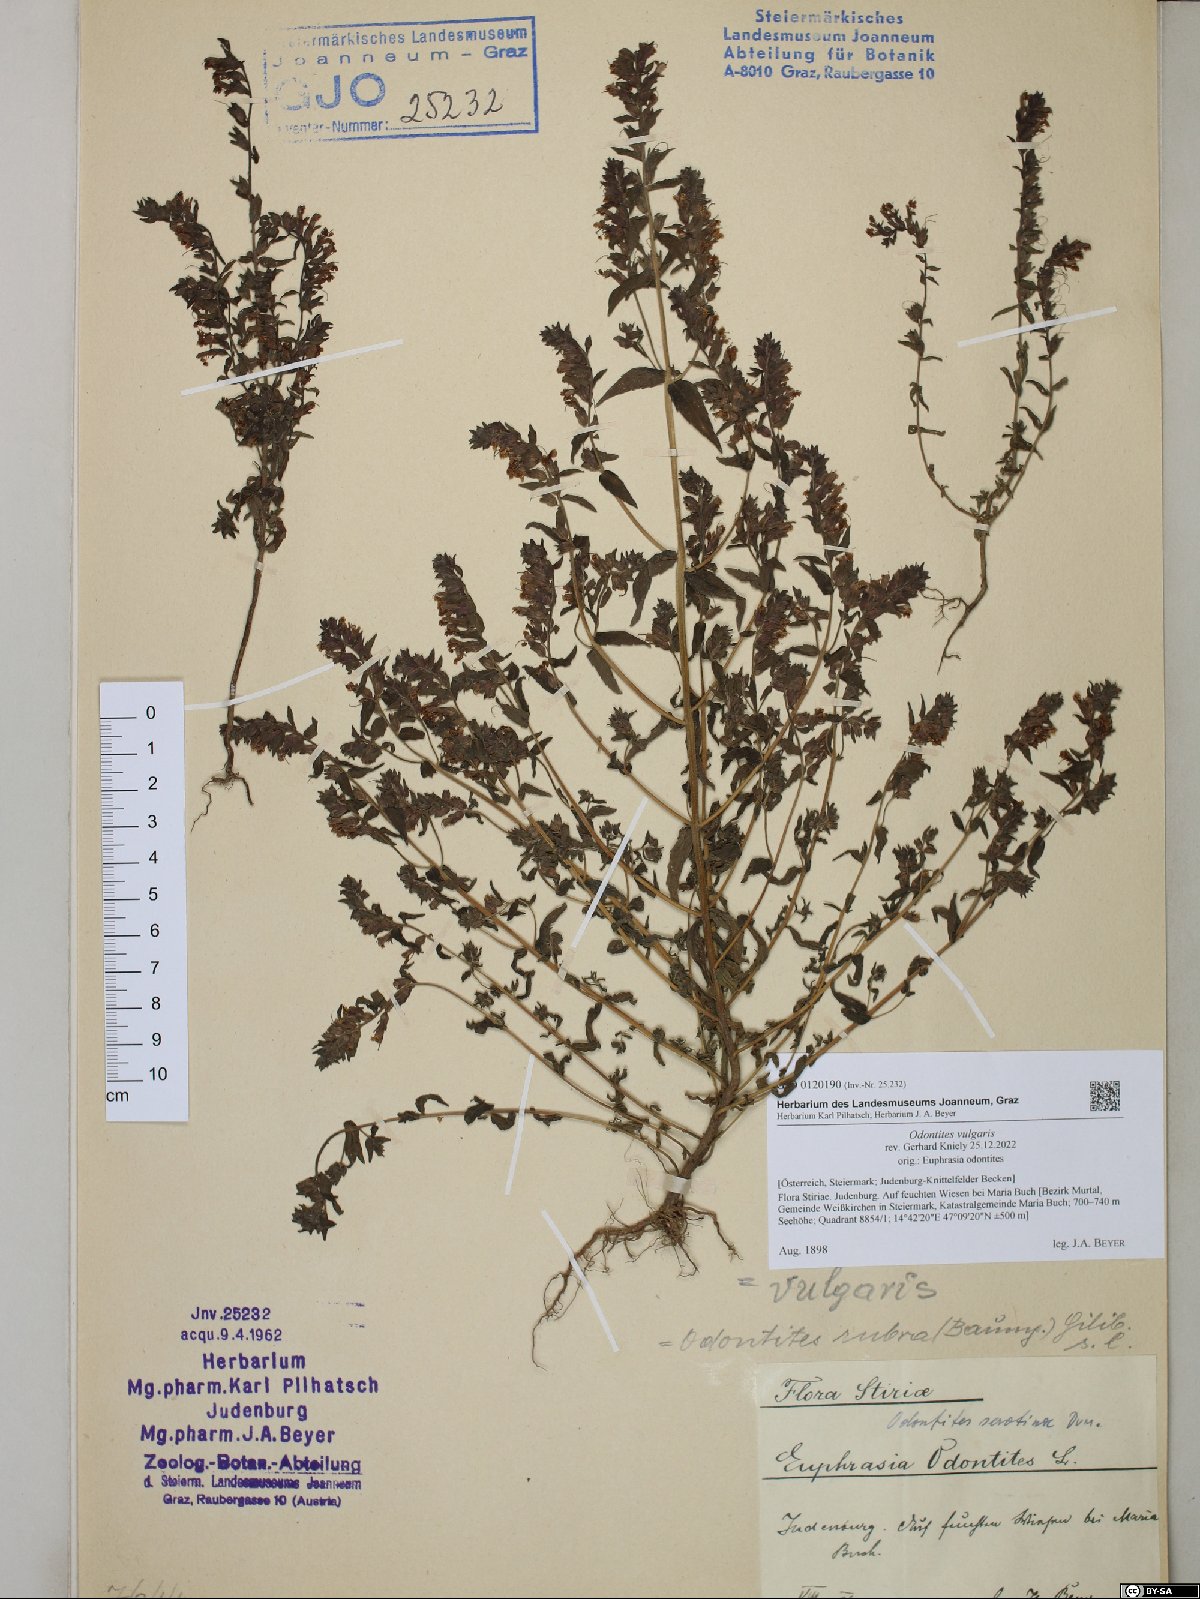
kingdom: Plantae
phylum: Tracheophyta
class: Magnoliopsida
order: Lamiales
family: Orobanchaceae
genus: Odontites
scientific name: Odontites vulgaris
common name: Broomrape
